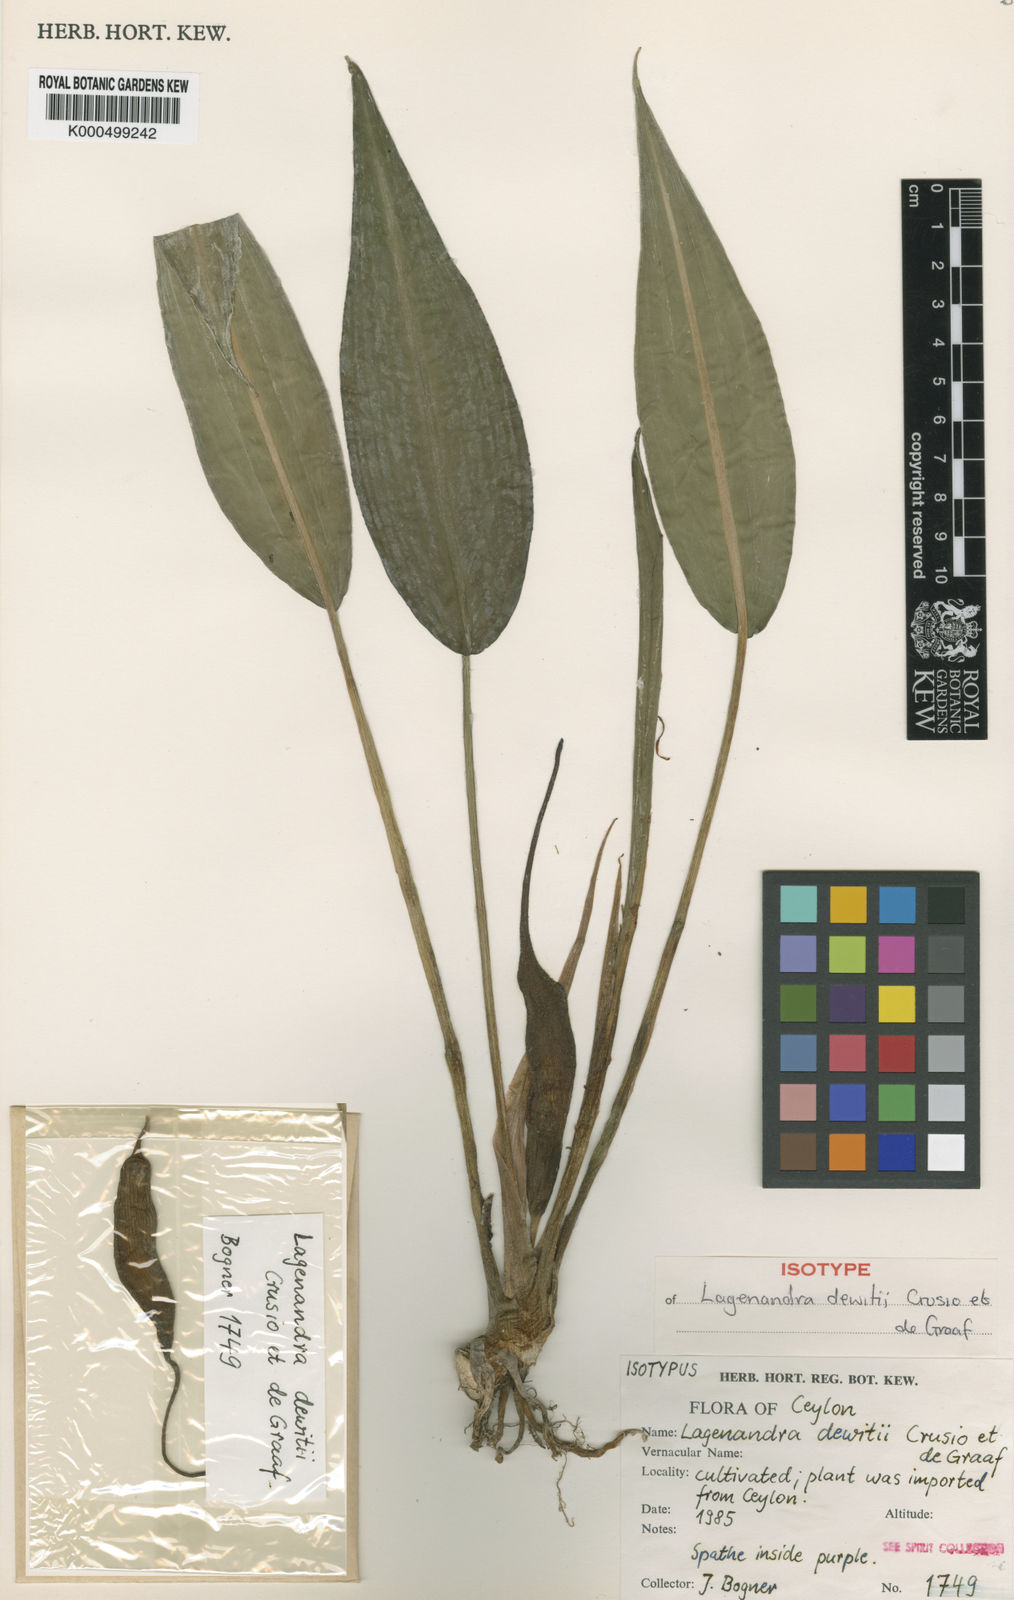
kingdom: Plantae
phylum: Tracheophyta
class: Liliopsida
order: Alismatales
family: Araceae
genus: Lagenandra
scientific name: Lagenandra dewitii
